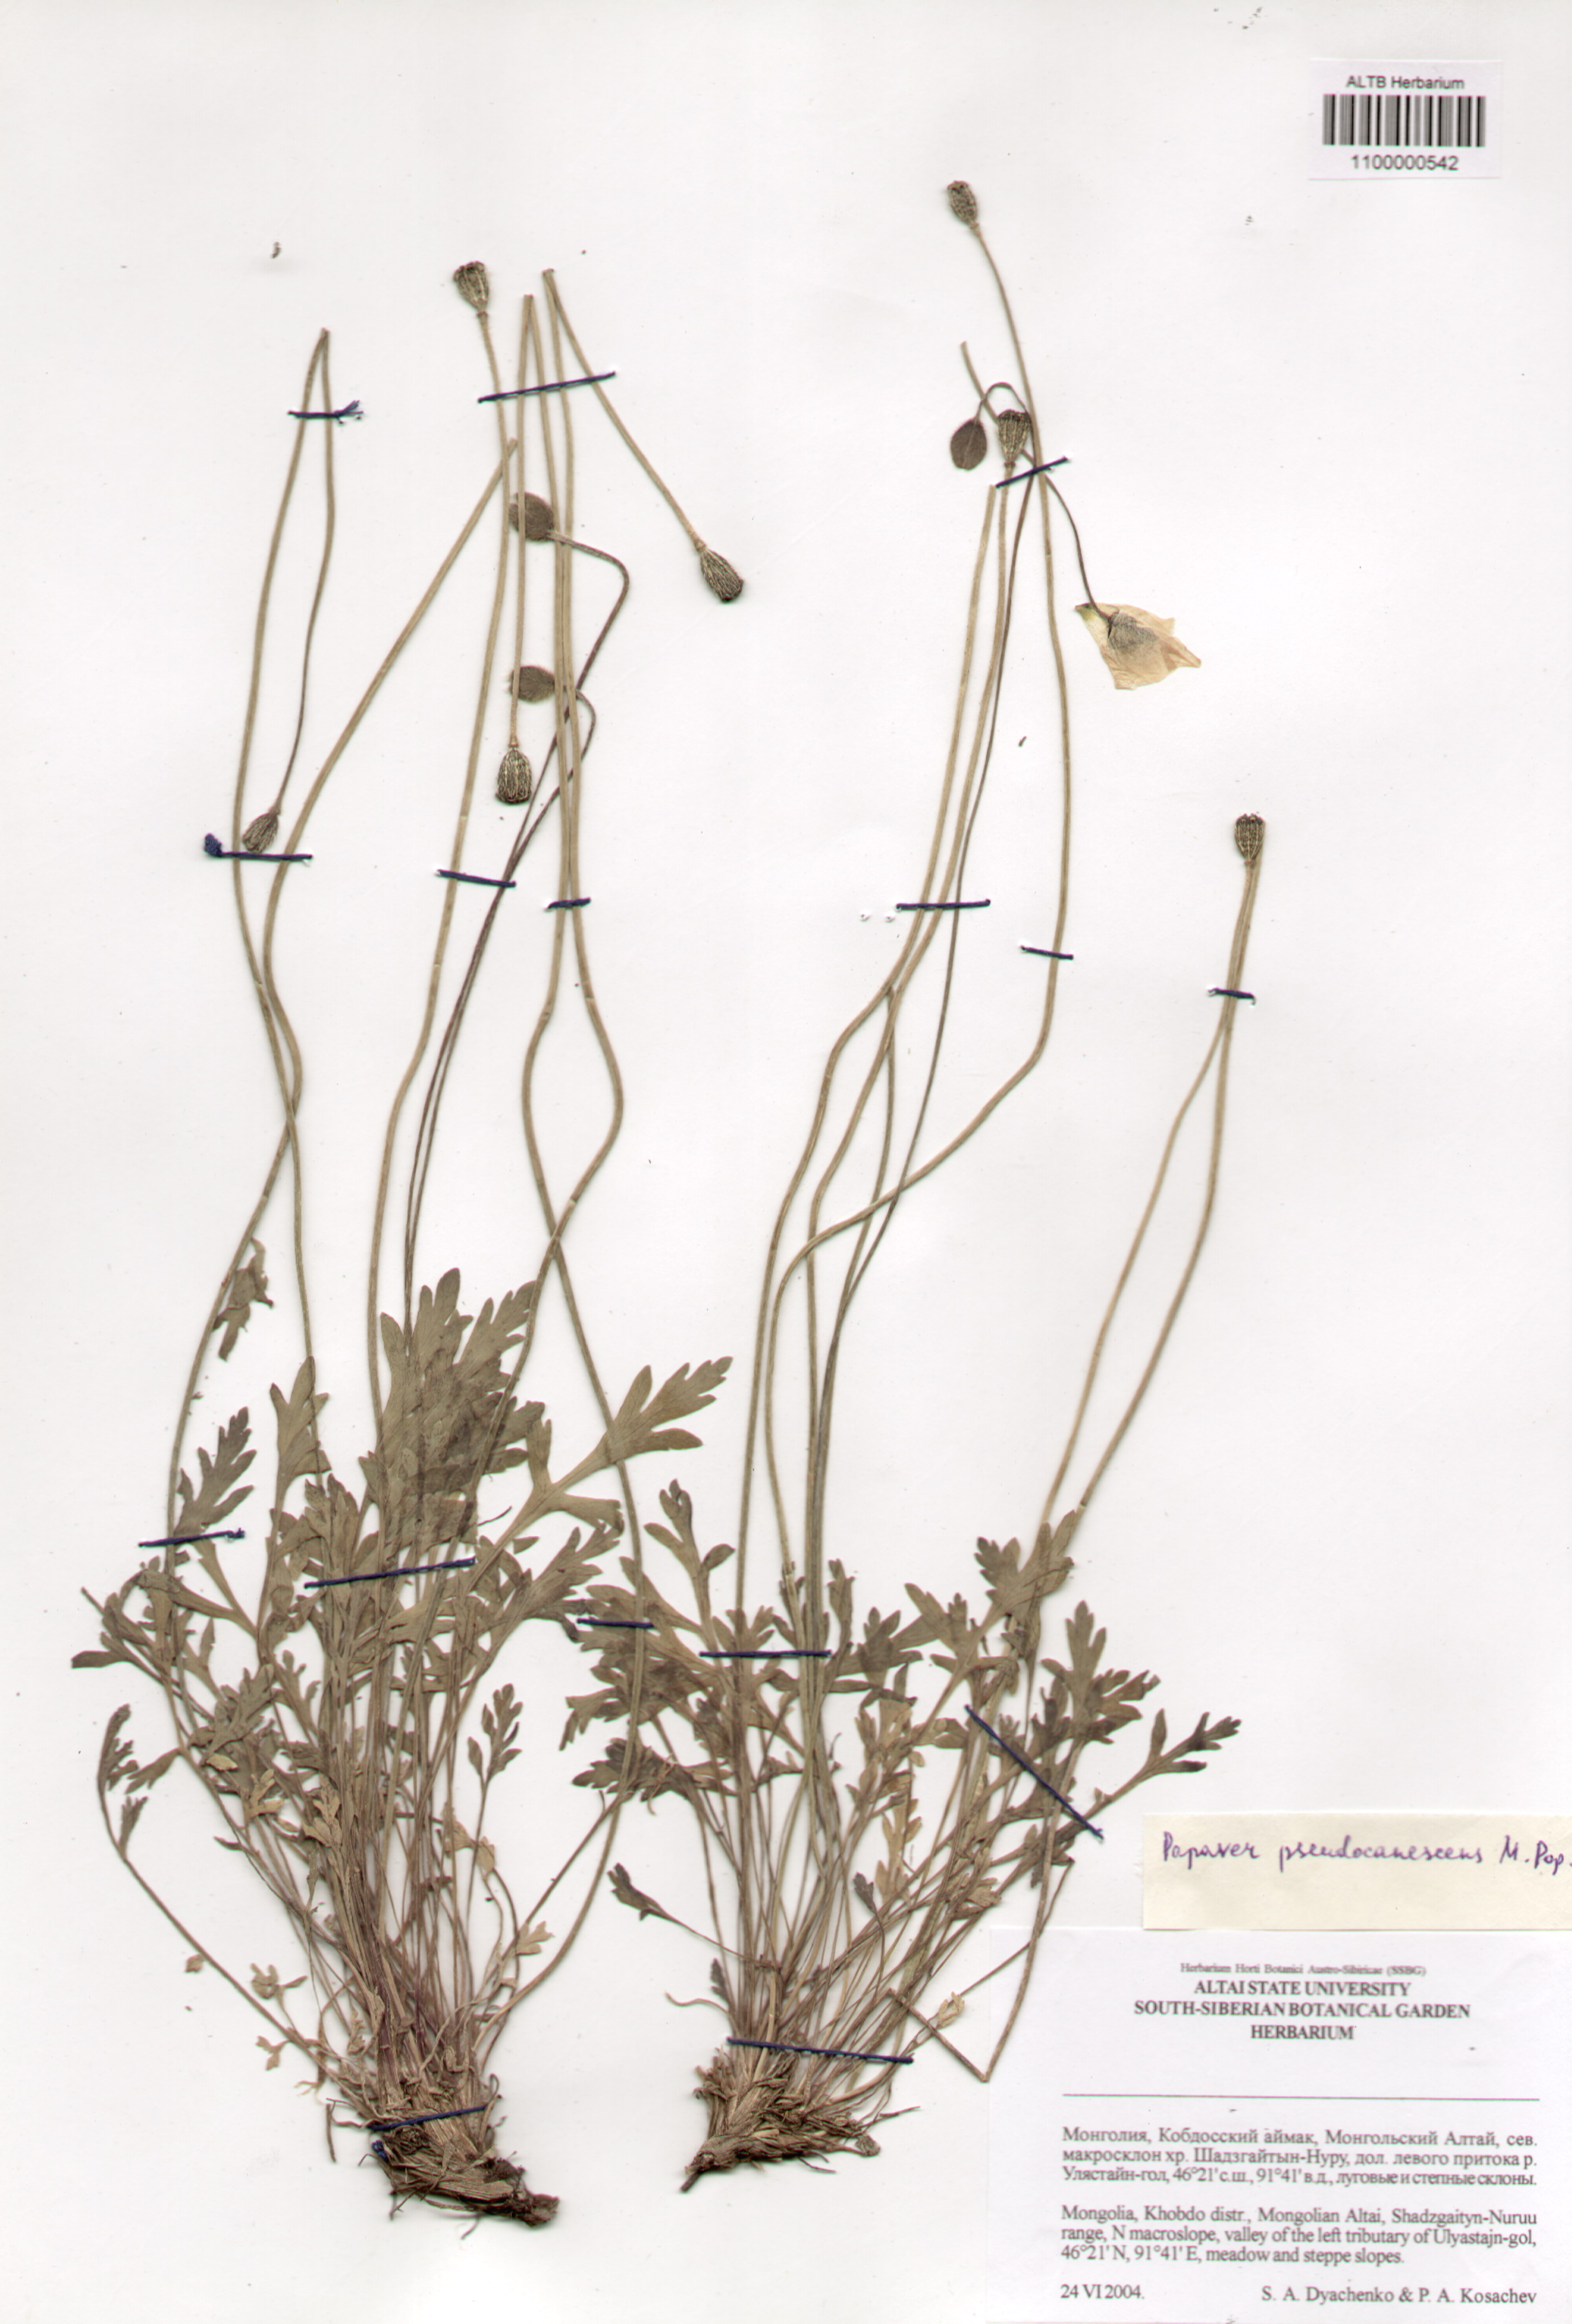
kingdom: Plantae
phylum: Tracheophyta
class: Magnoliopsida
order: Ranunculales
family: Papaveraceae
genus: Papaver
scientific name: Papaver canescens
